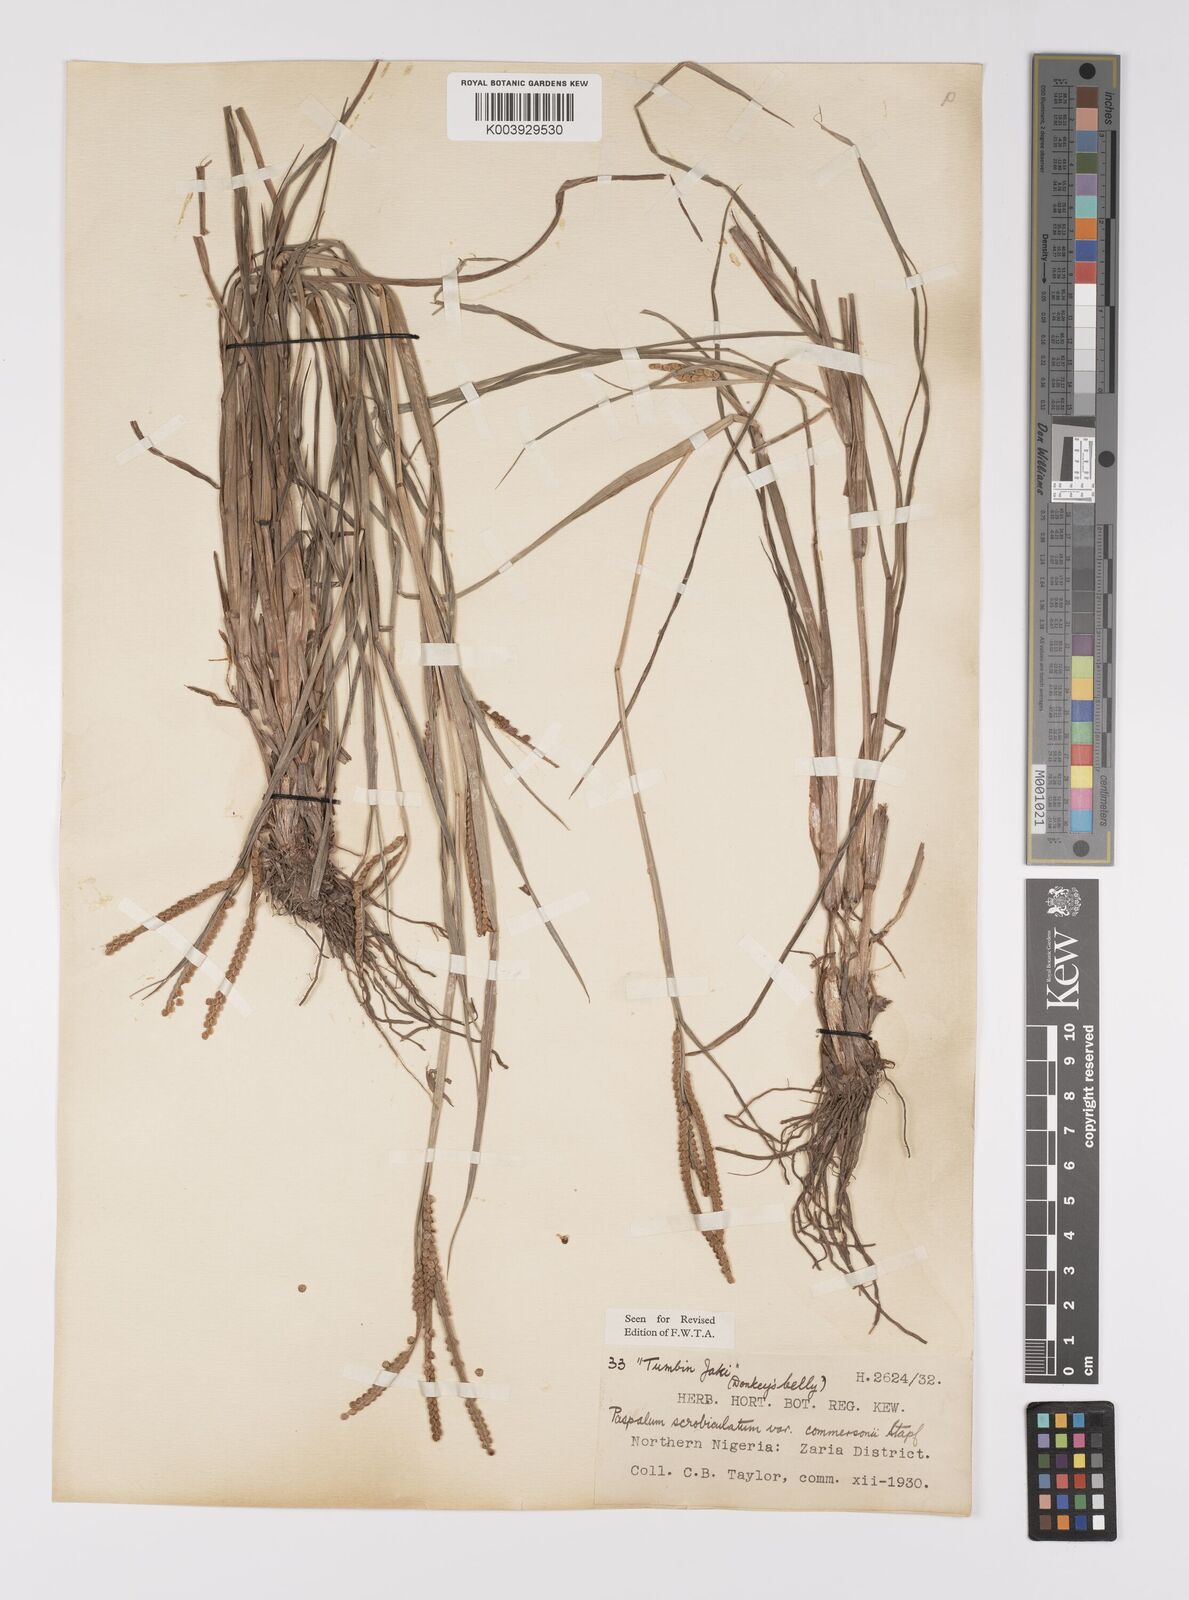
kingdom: Plantae
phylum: Tracheophyta
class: Liliopsida
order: Poales
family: Poaceae
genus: Paspalum
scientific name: Paspalum scrobiculatum
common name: Kodo millet
